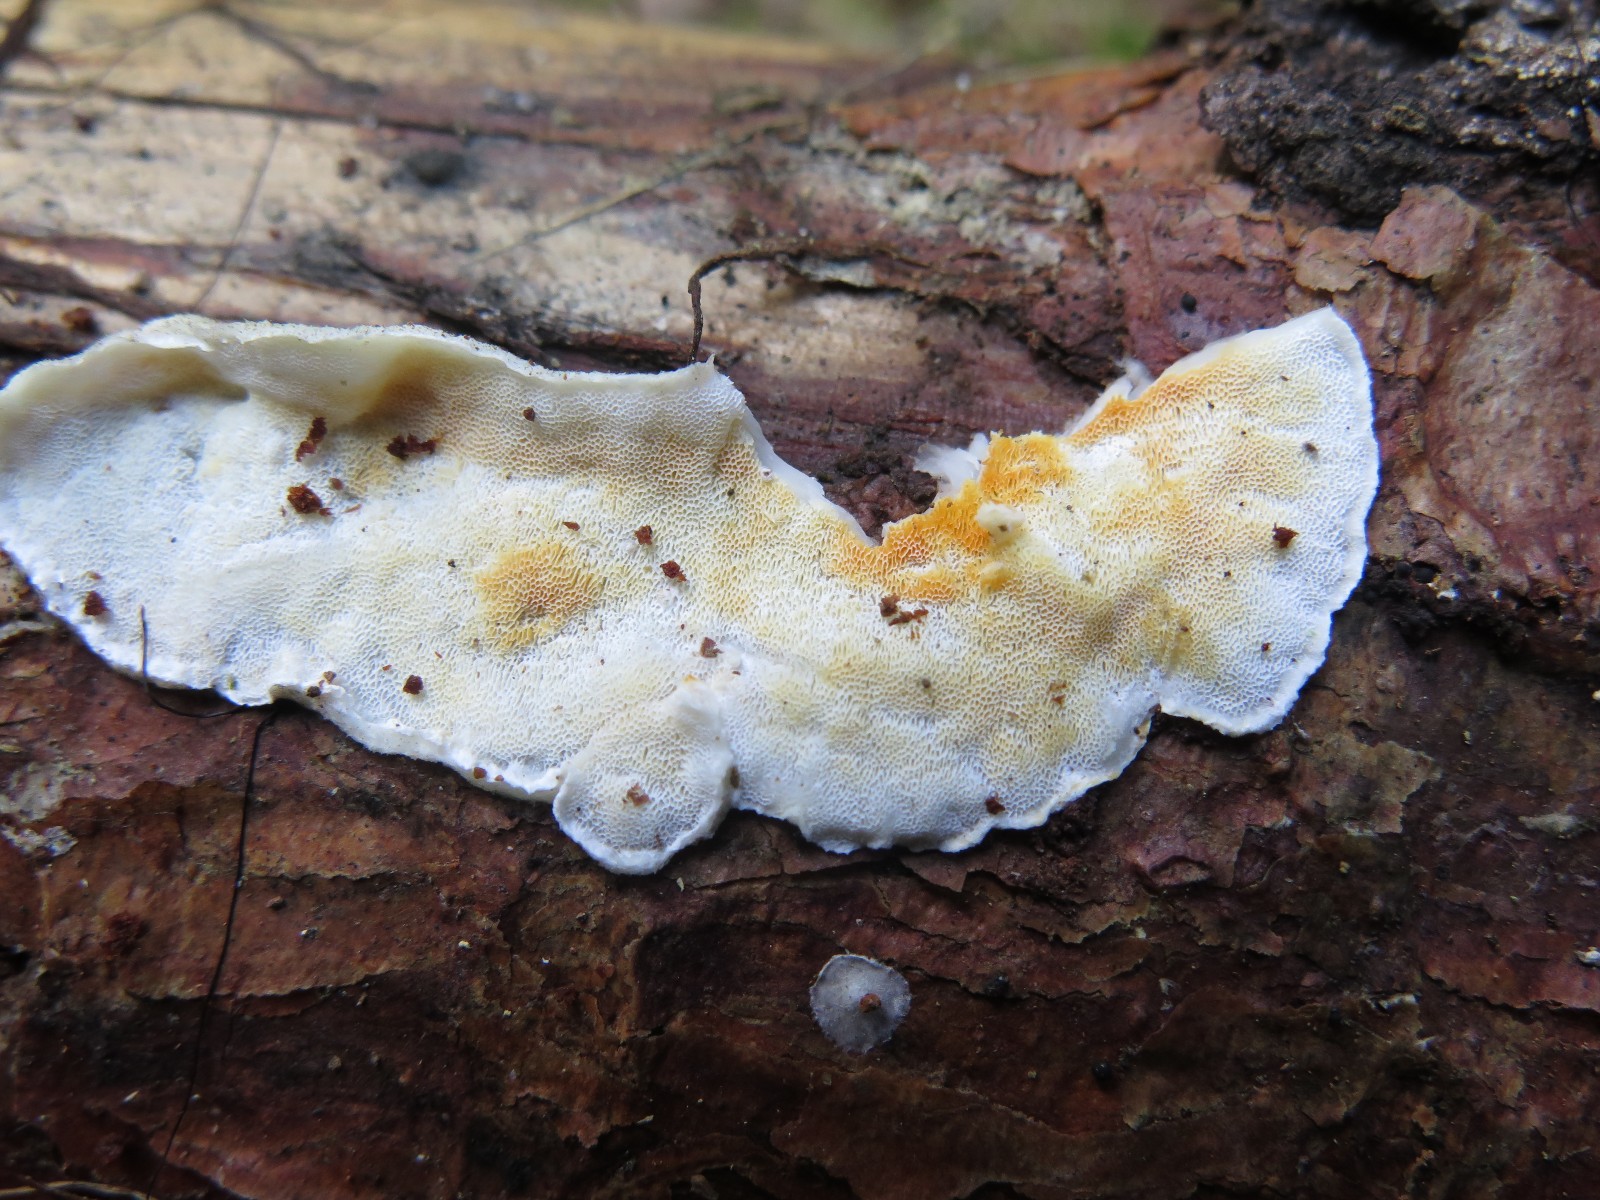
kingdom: Fungi
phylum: Basidiomycota
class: Agaricomycetes
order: Polyporales
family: Incrustoporiaceae
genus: Skeletocutis
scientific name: Skeletocutis amorpha
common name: orange krystalporesvamp
